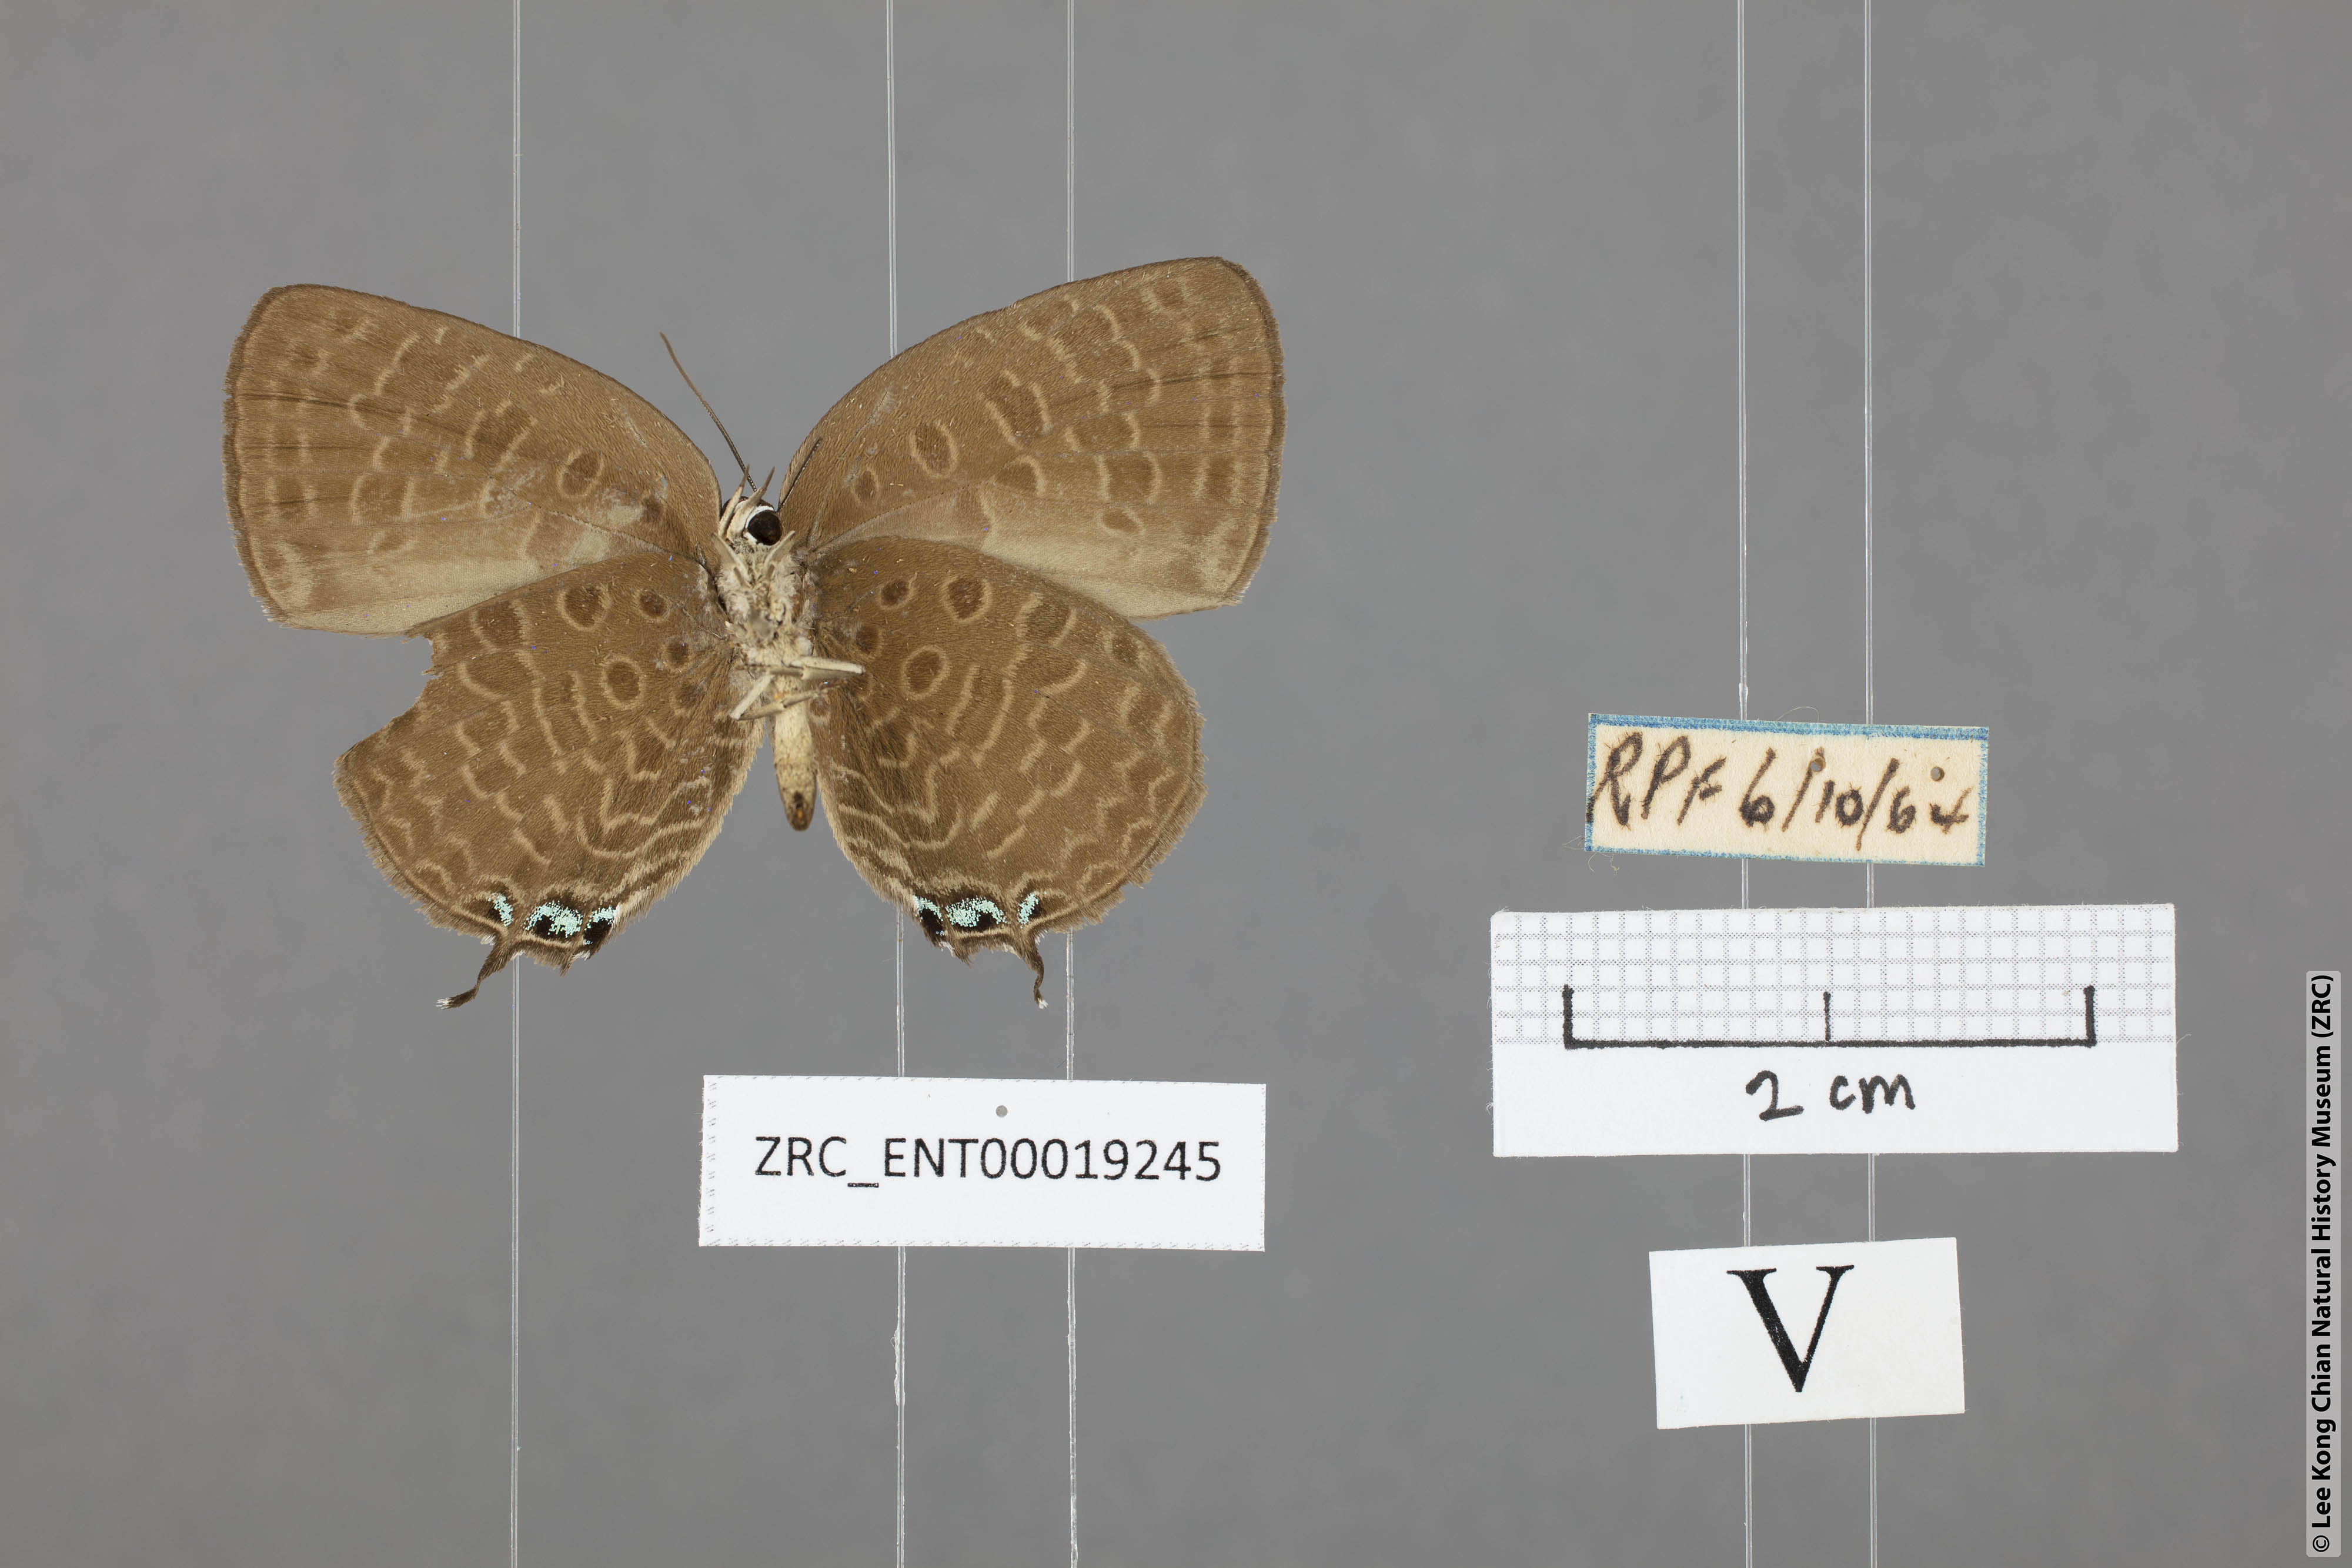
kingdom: Animalia
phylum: Arthropoda
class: Insecta
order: Lepidoptera
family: Lycaenidae
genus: Arhopala
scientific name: Arhopala atosia
